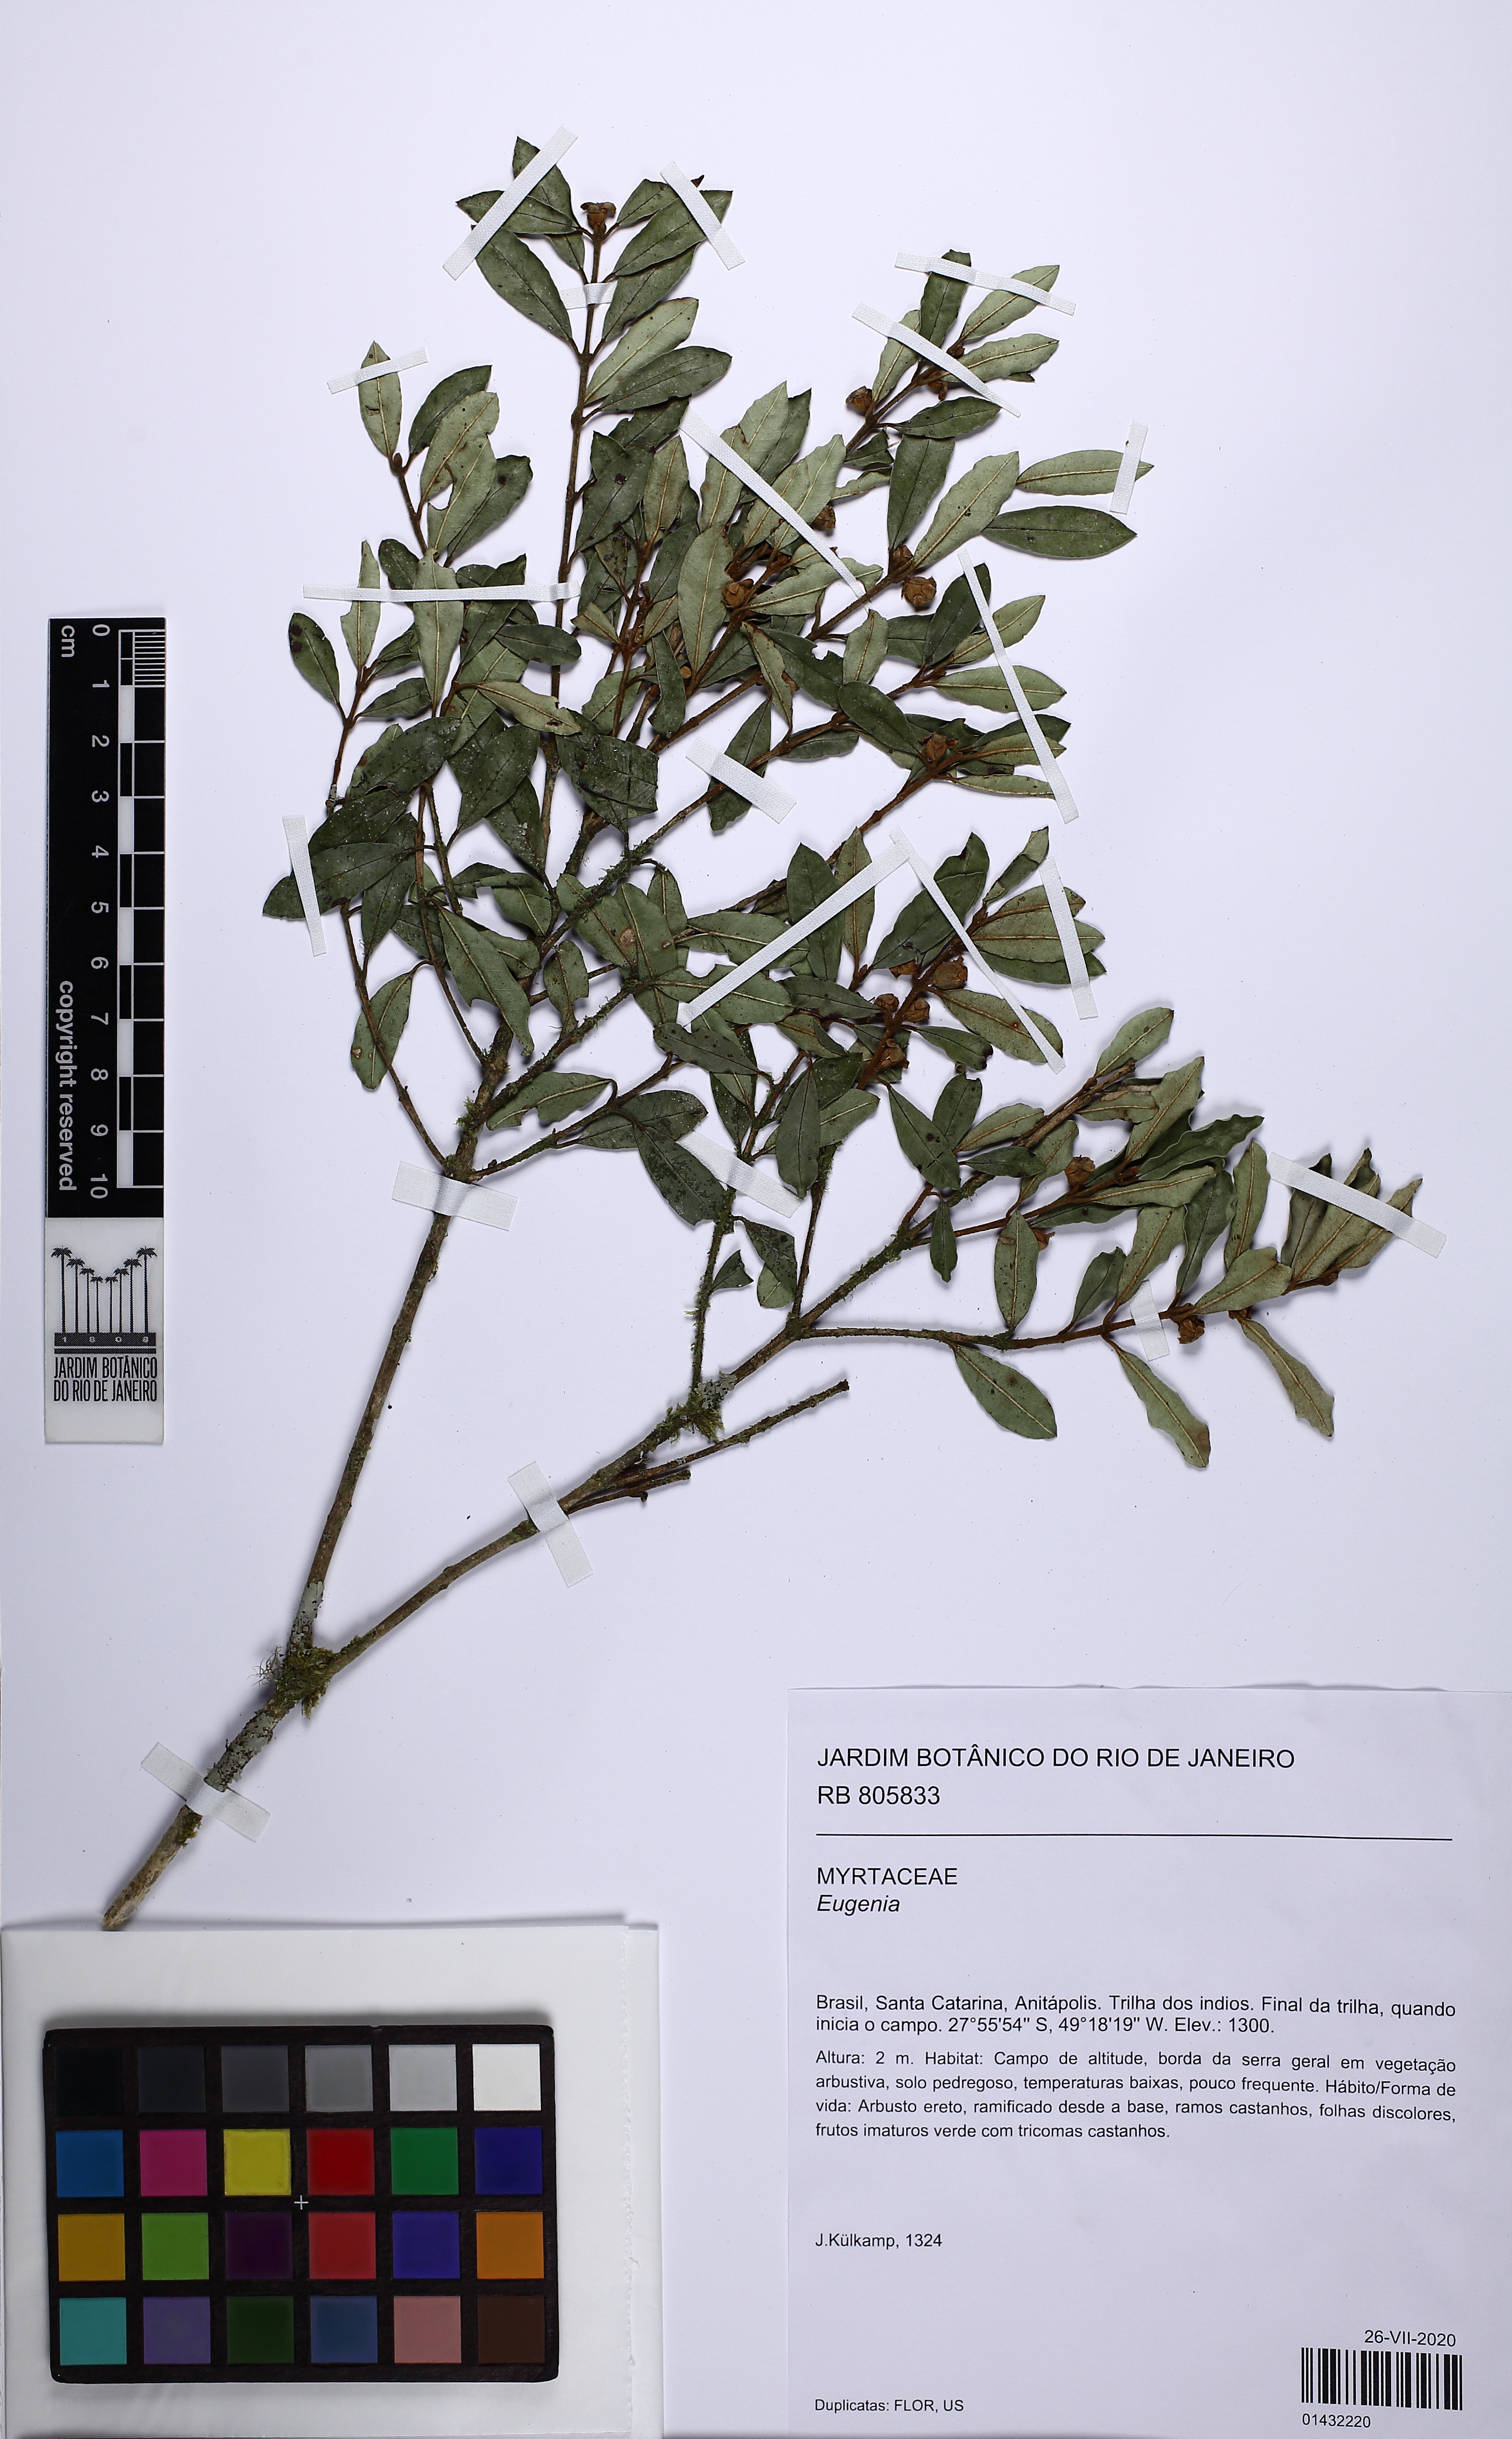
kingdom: Plantae
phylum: Tracheophyta
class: Magnoliopsida
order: Myrtales
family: Myrtaceae
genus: Myrceugenia
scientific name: Myrceugenia
